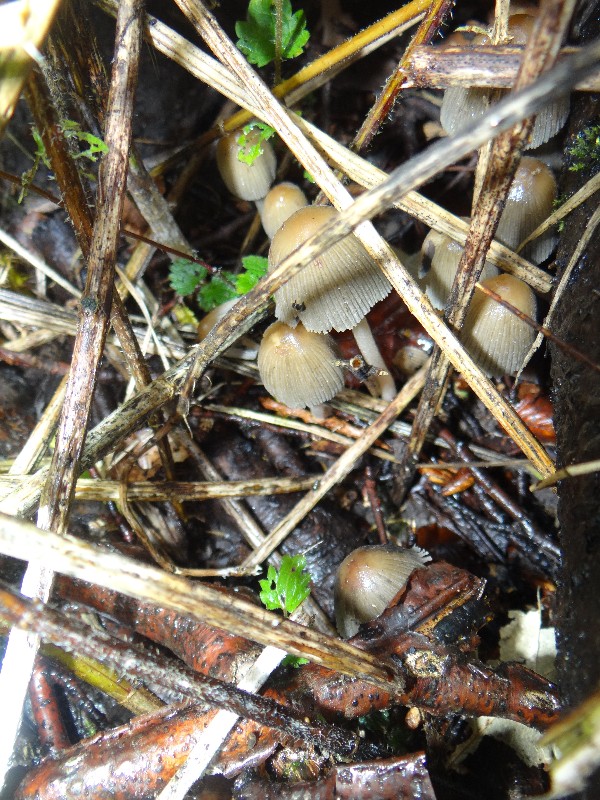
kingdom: Fungi
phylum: Basidiomycota
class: Agaricomycetes
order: Agaricales
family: Psathyrellaceae
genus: Coprinellus
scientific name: Coprinellus micaceus
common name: glimmer-blækhat
